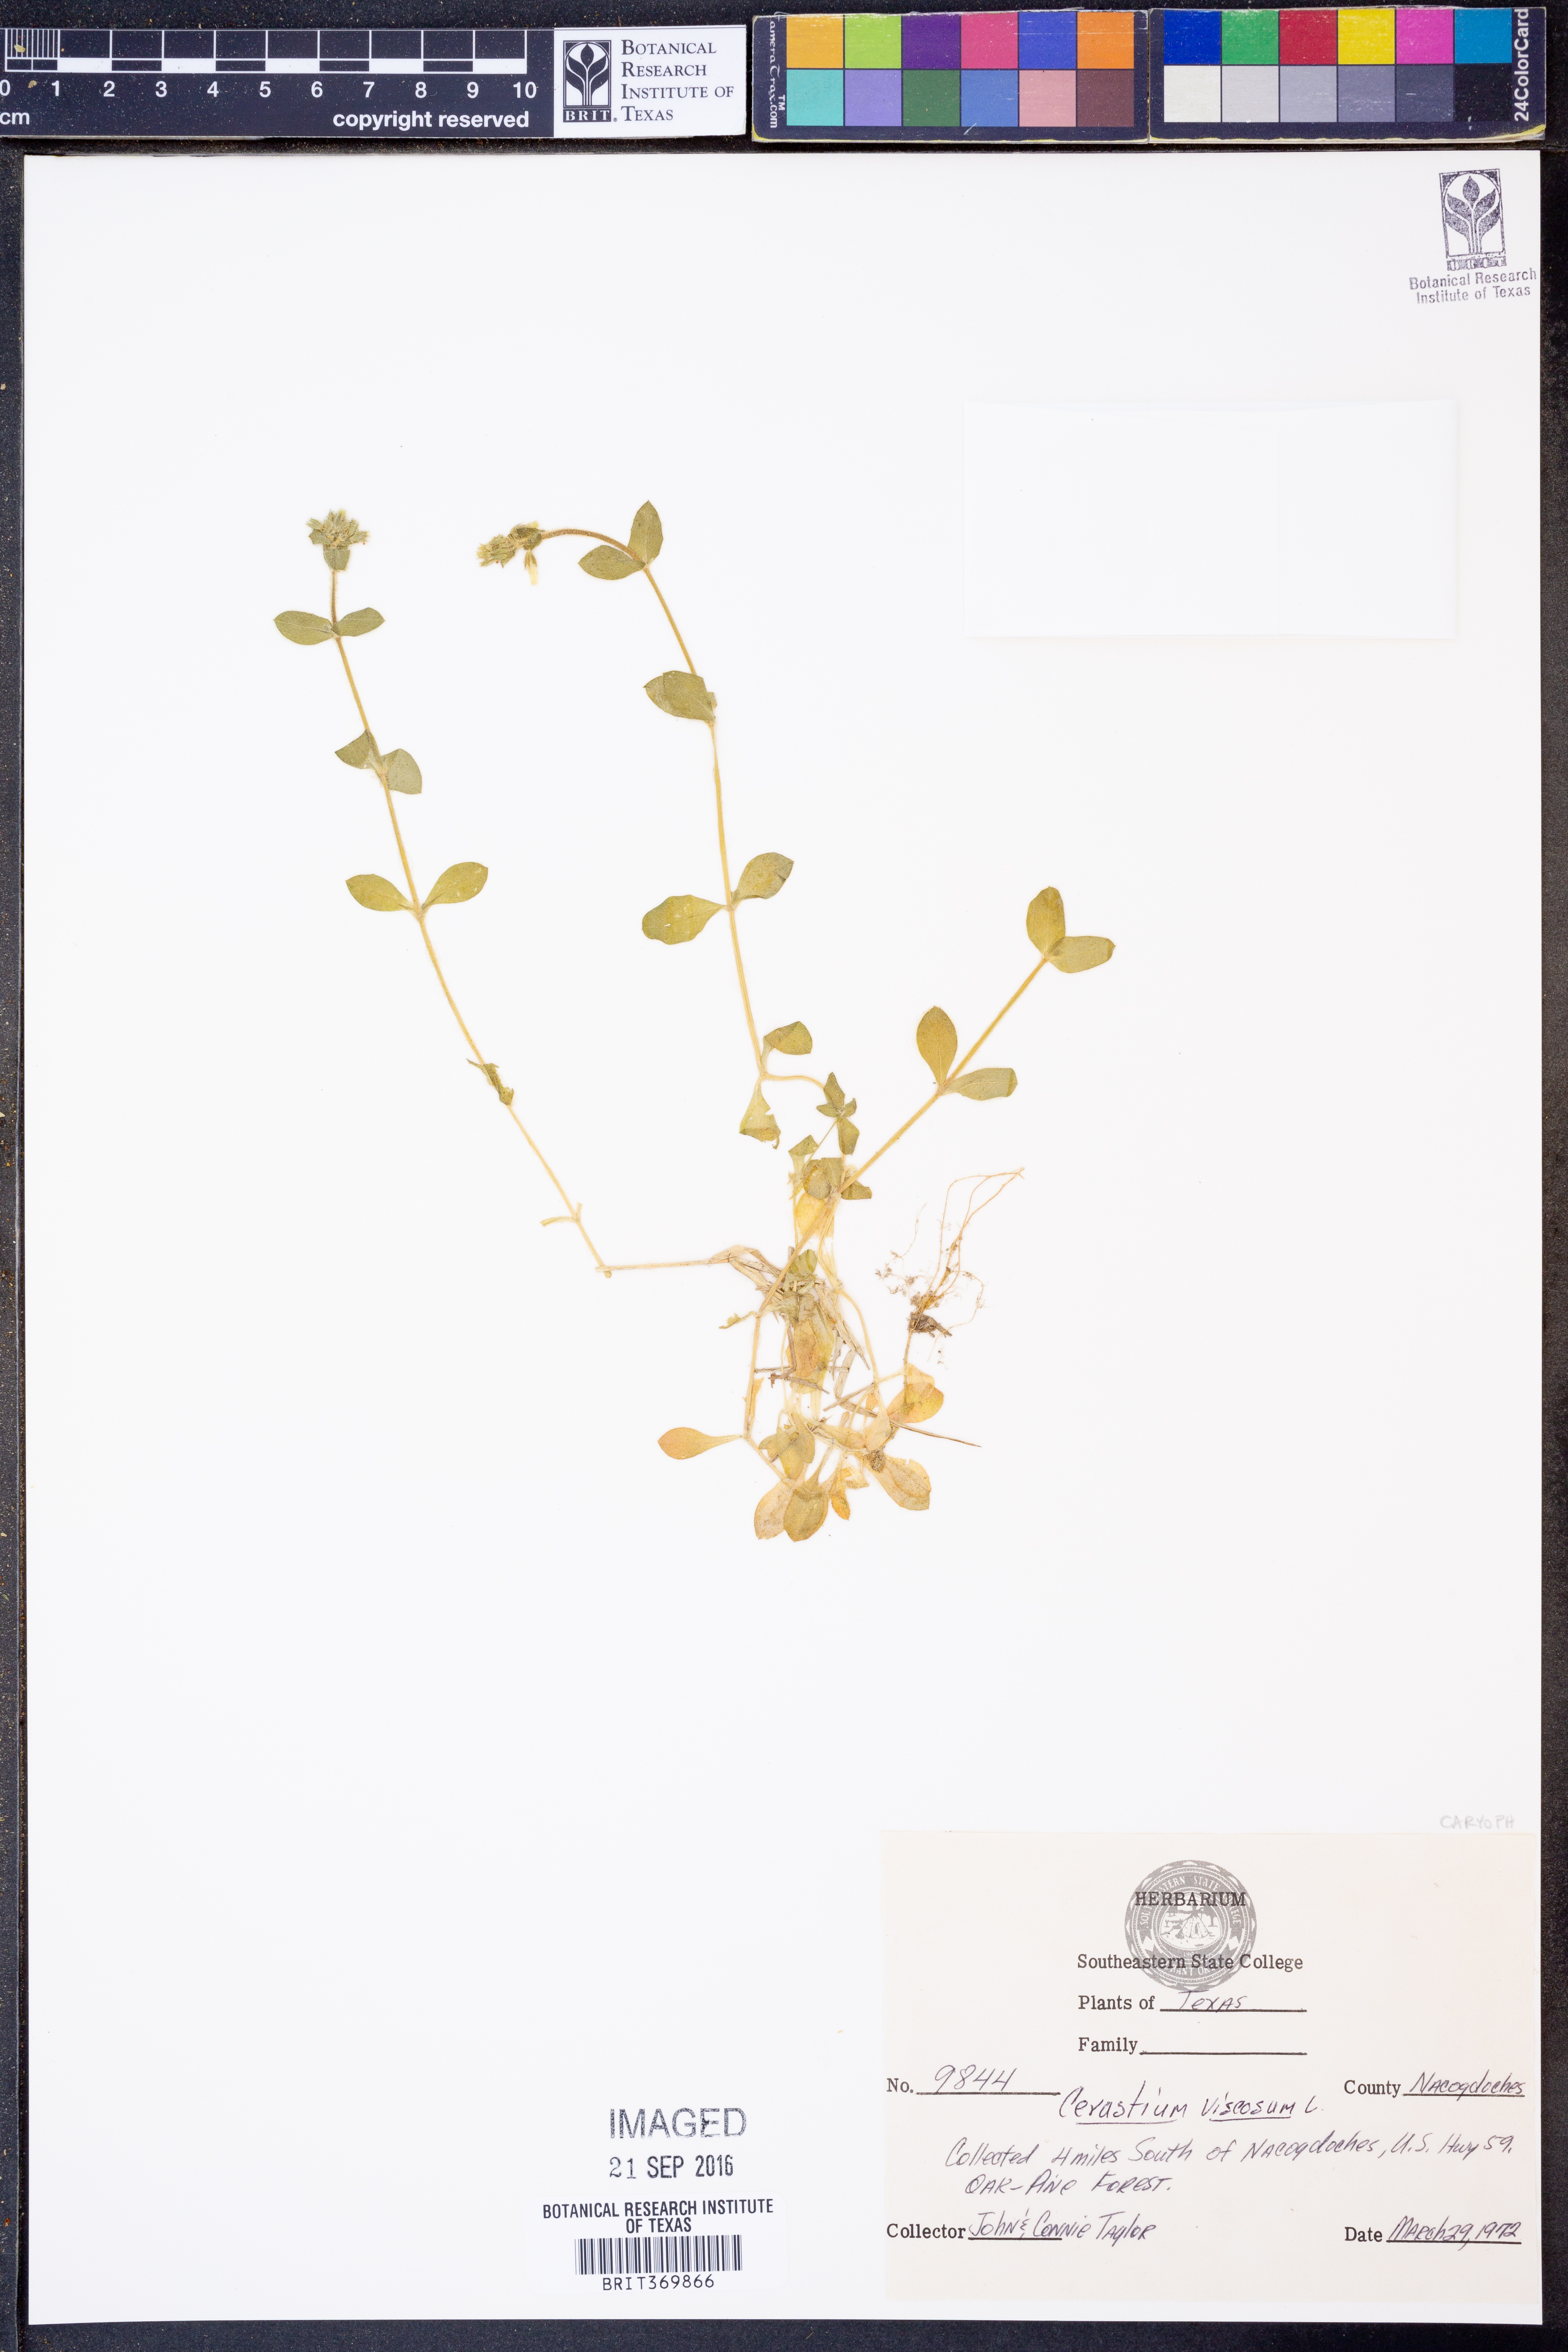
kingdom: Plantae
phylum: Tracheophyta
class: Magnoliopsida
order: Caryophyllales
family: Caryophyllaceae
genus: Cerastium
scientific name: Cerastium holosteoides
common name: Big chickweed
